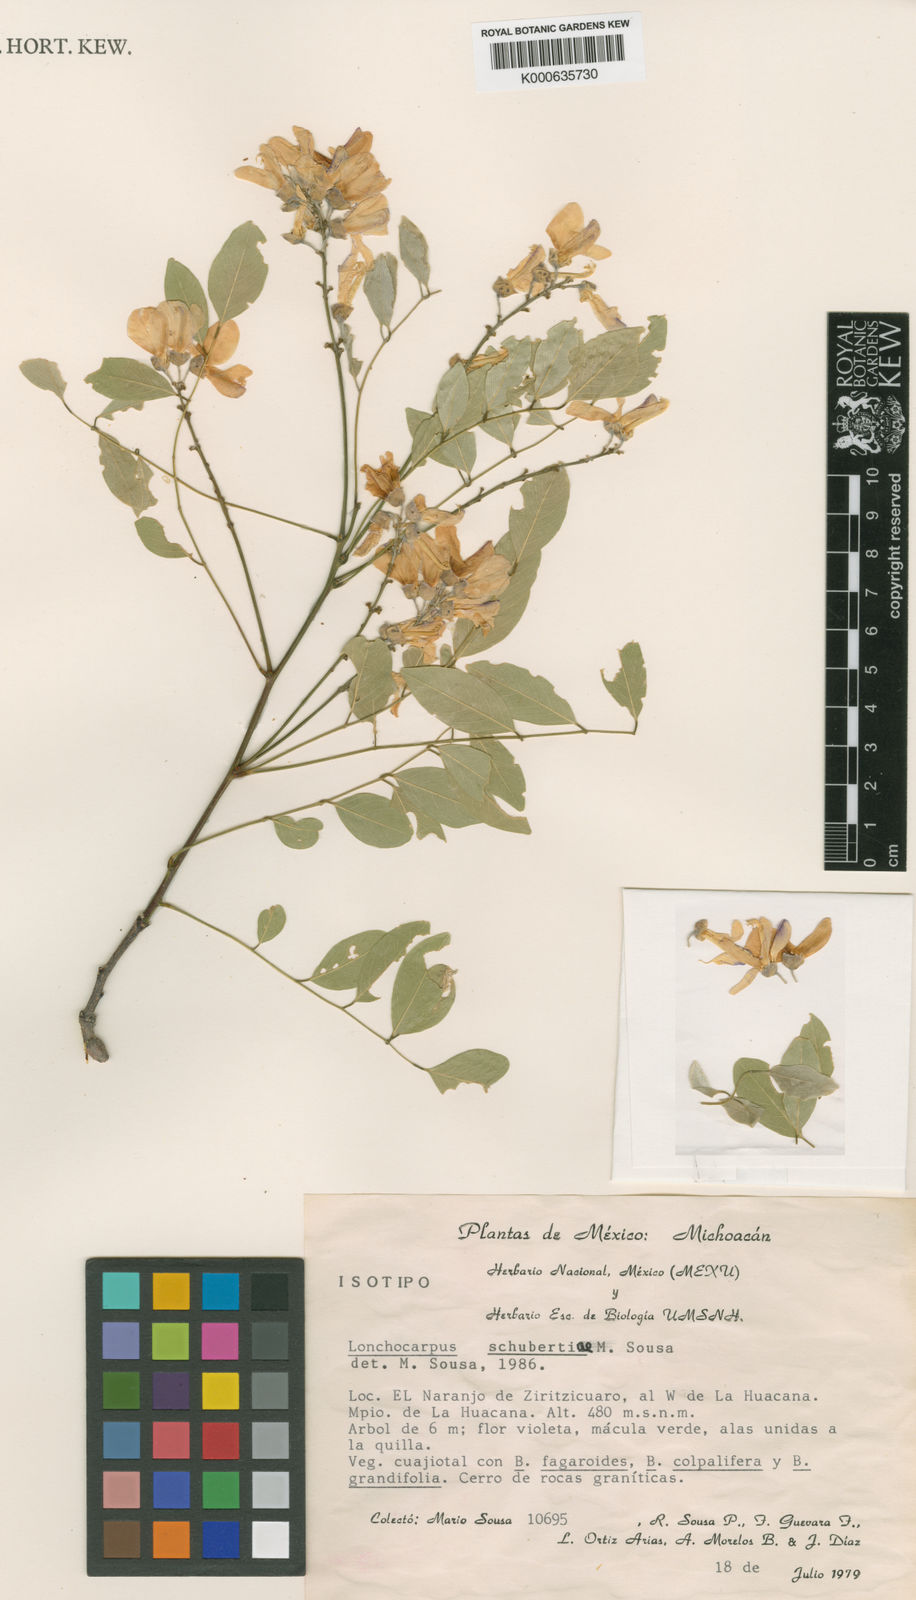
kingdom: Plantae
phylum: Tracheophyta
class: Magnoliopsida
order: Fabales
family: Fabaceae
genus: Lonchocarpus
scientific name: Lonchocarpus schubertiae
